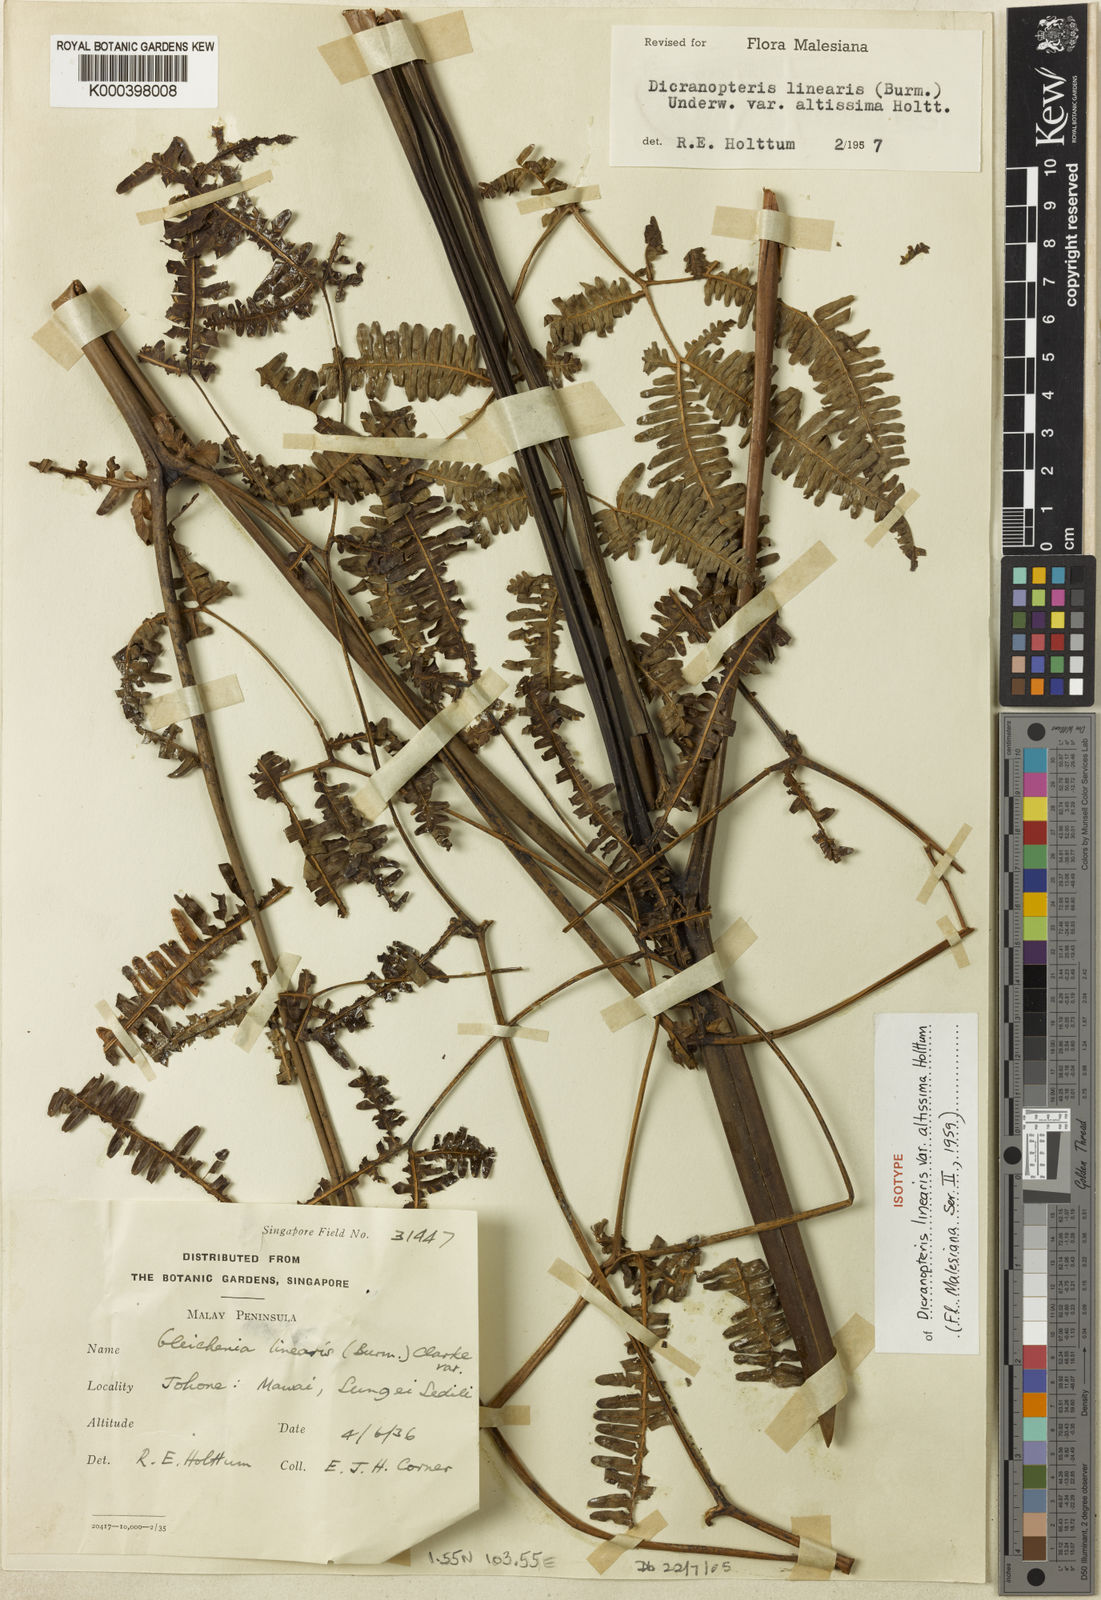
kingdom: Plantae
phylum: Tracheophyta
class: Polypodiopsida
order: Gleicheniales
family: Gleicheniaceae
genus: Dicranopteris
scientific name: Dicranopteris taiwanensis
